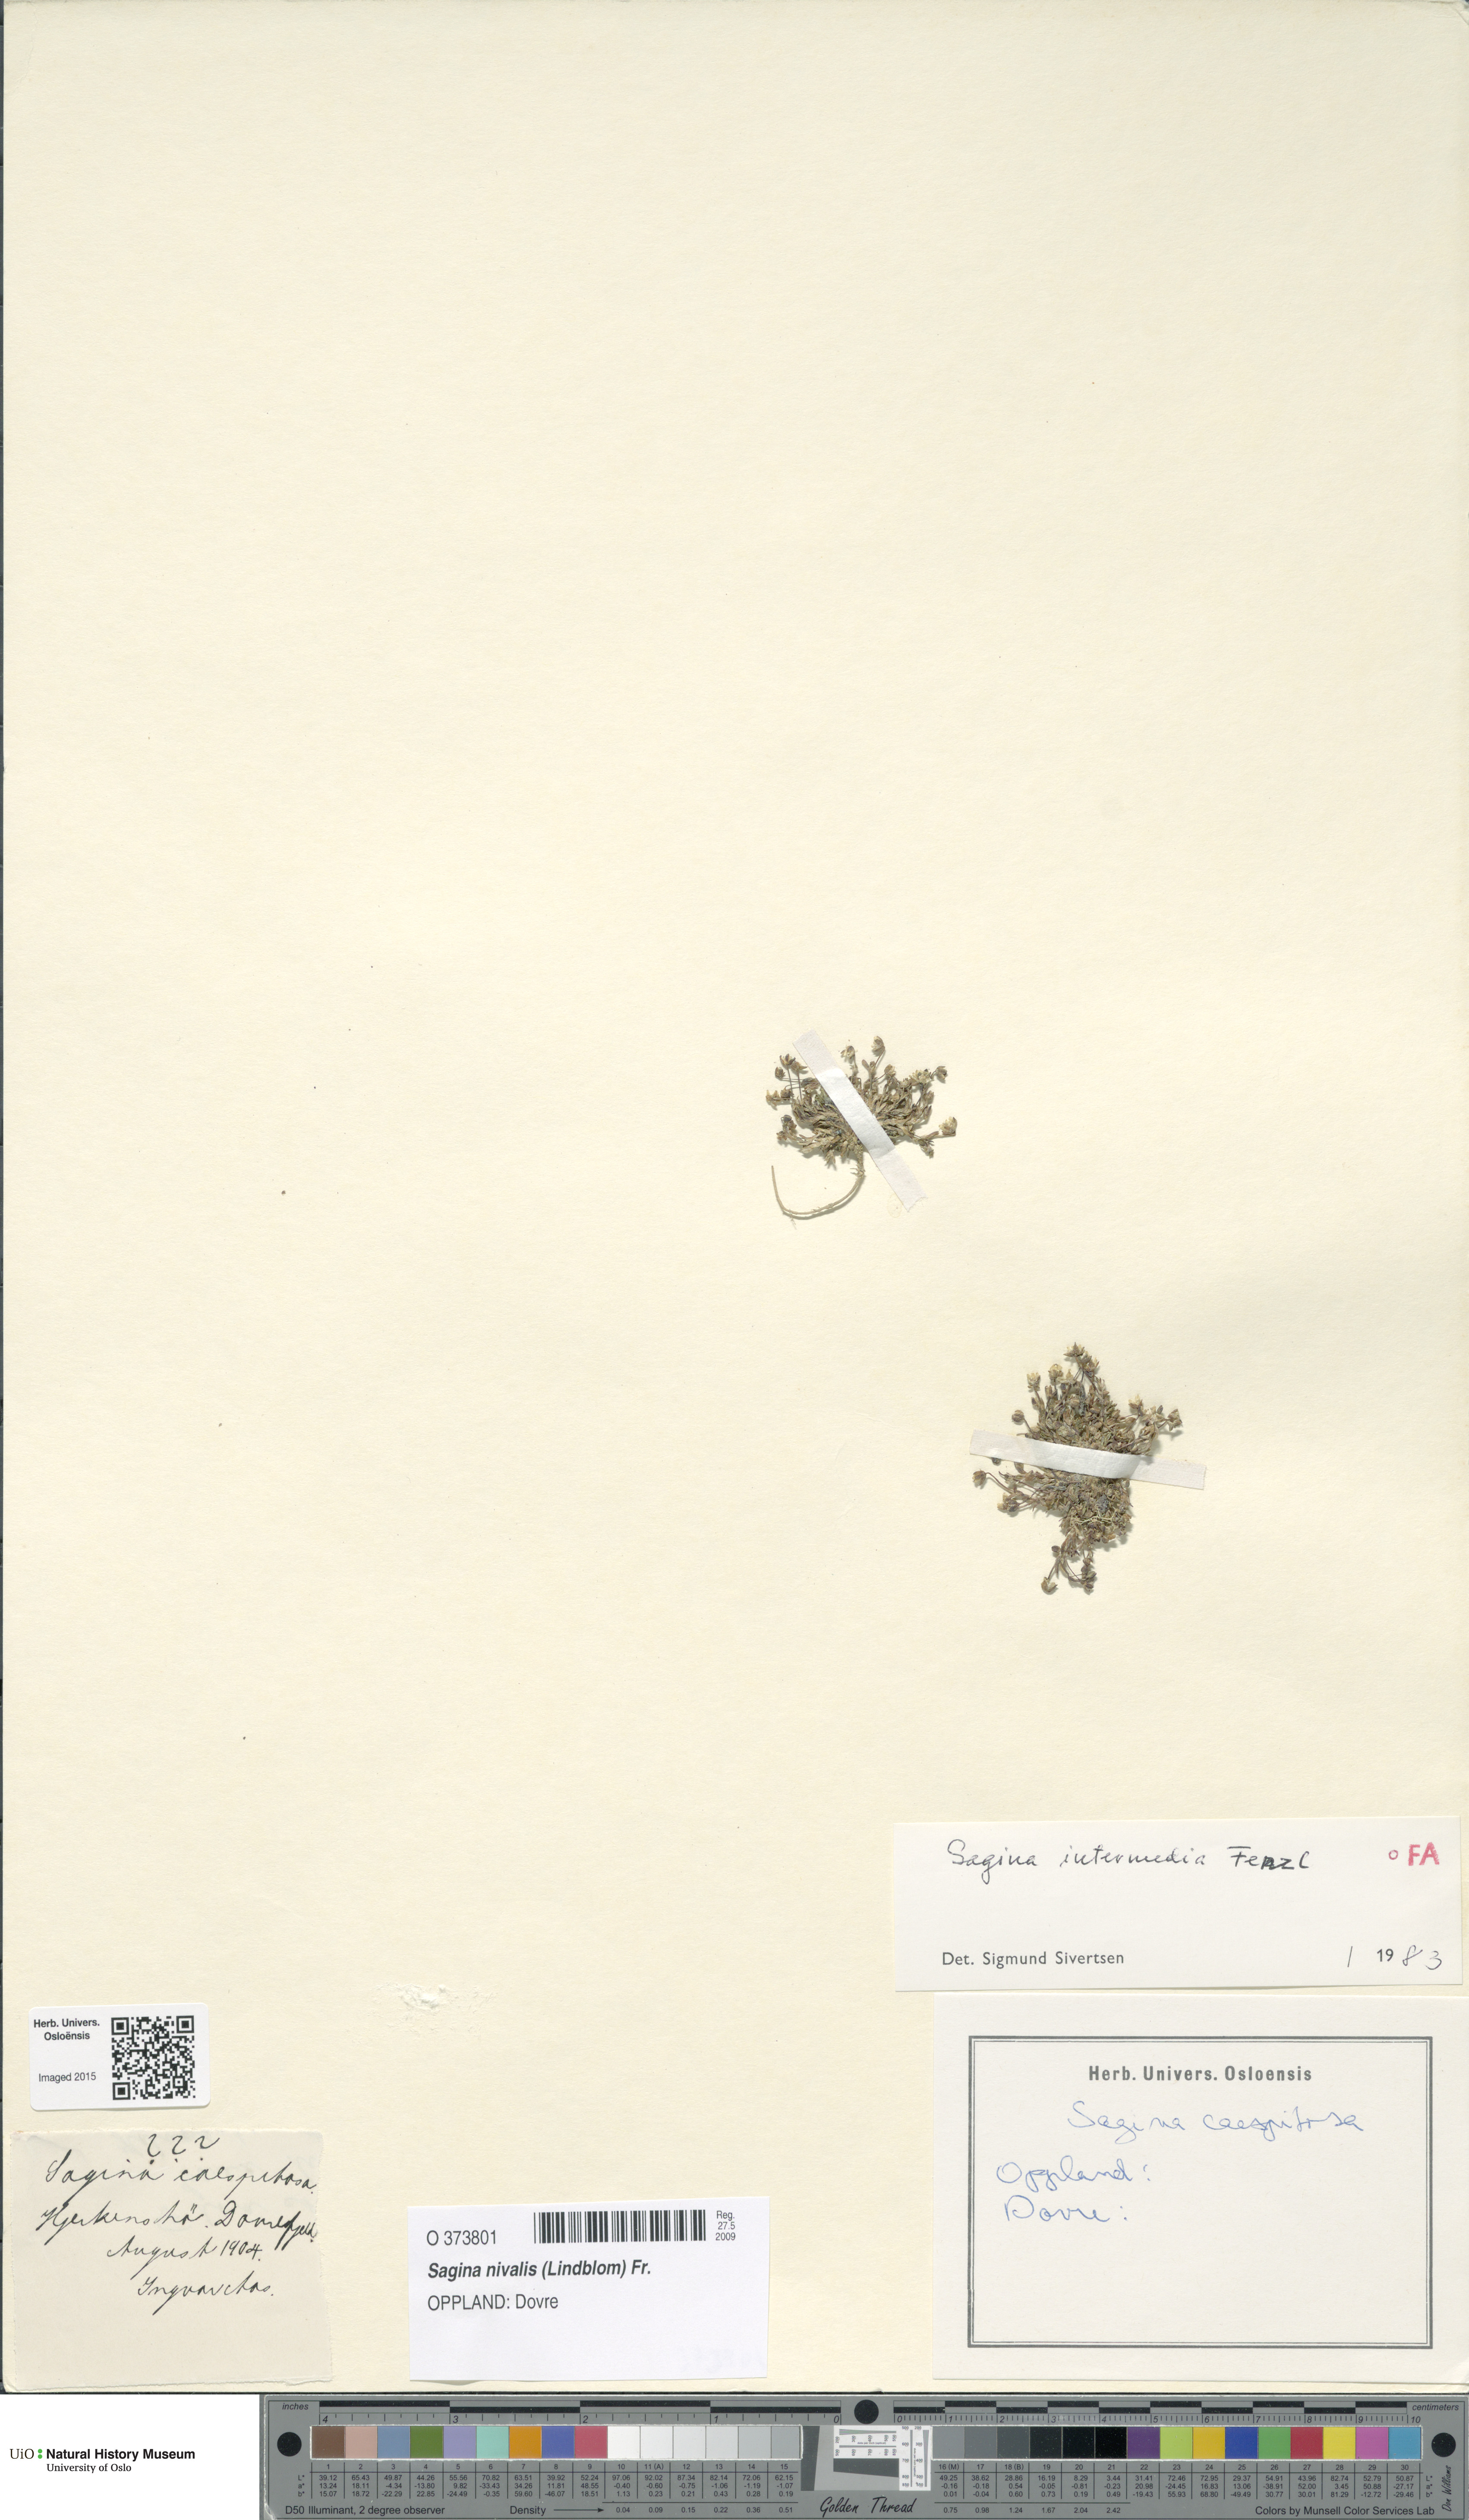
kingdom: Plantae
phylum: Tracheophyta
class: Magnoliopsida
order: Caryophyllales
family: Caryophyllaceae
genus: Sagina
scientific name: Sagina nivalis
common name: Snow pearlwort
